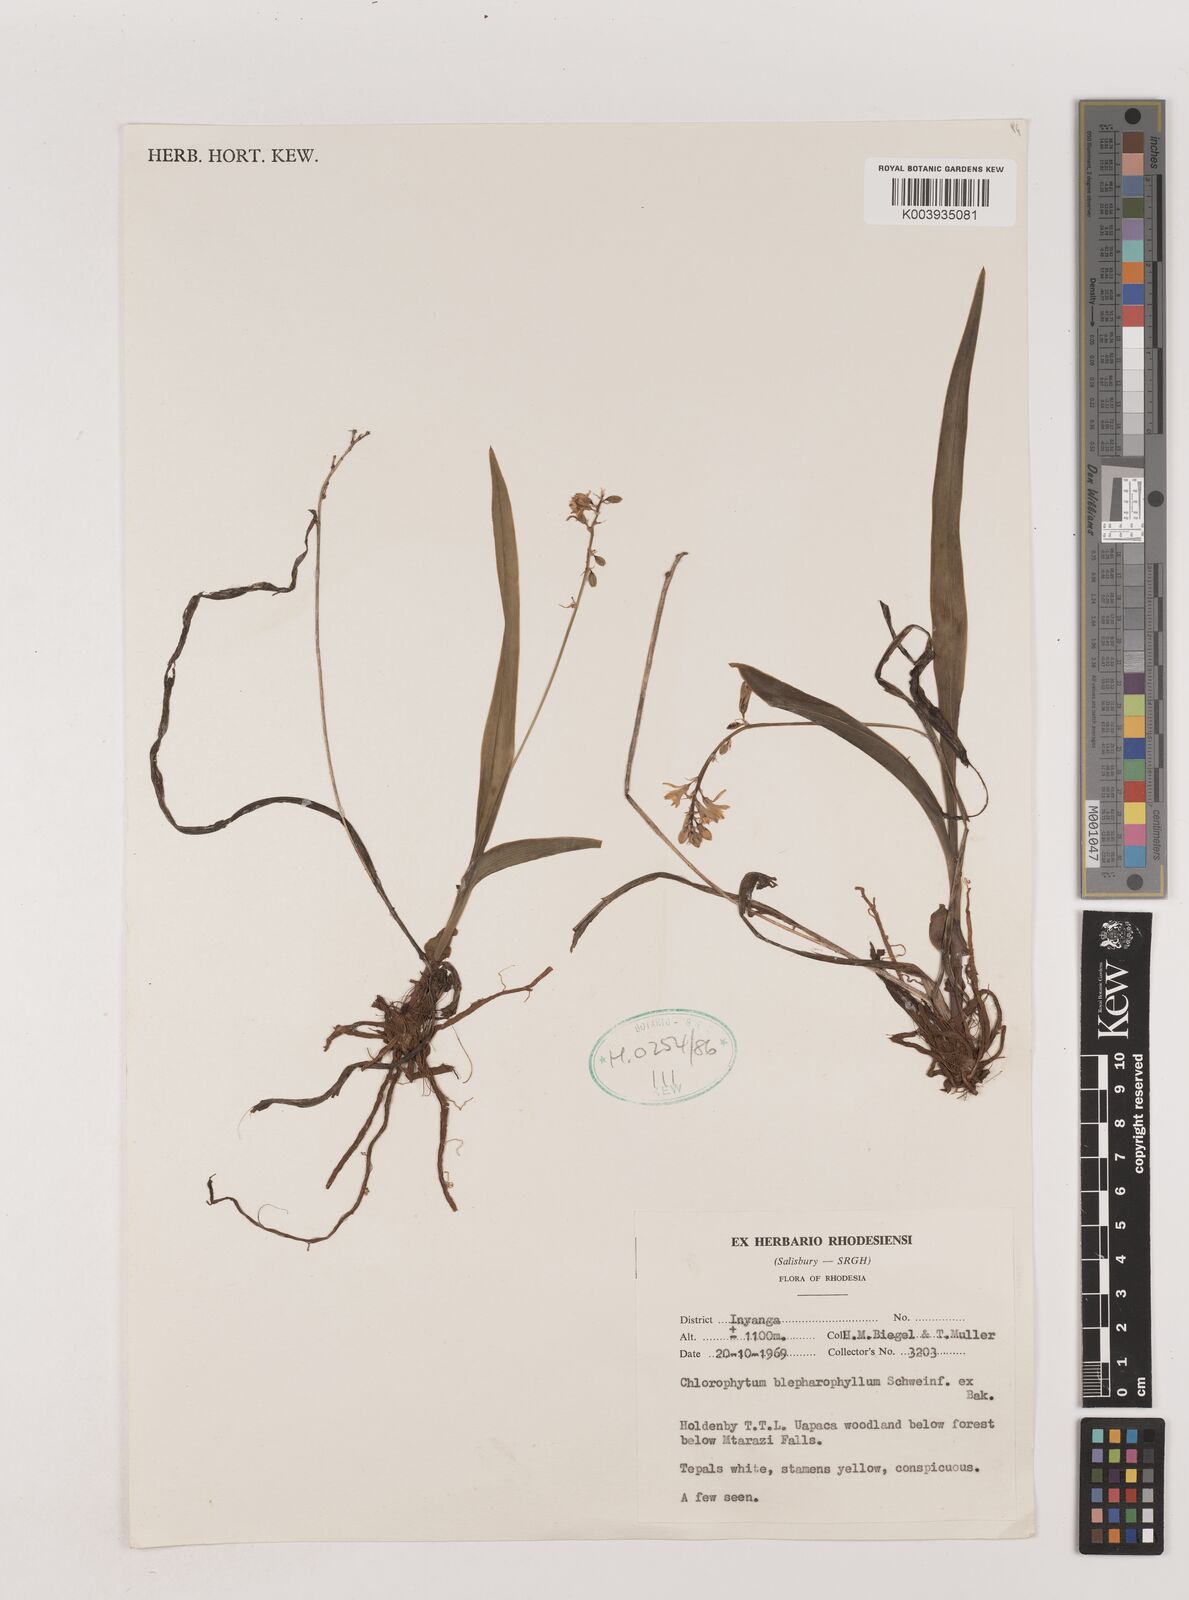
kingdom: Plantae
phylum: Tracheophyta
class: Liliopsida
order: Asparagales
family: Asparagaceae
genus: Chlorophytum
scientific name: Chlorophytum blepharophyllum
